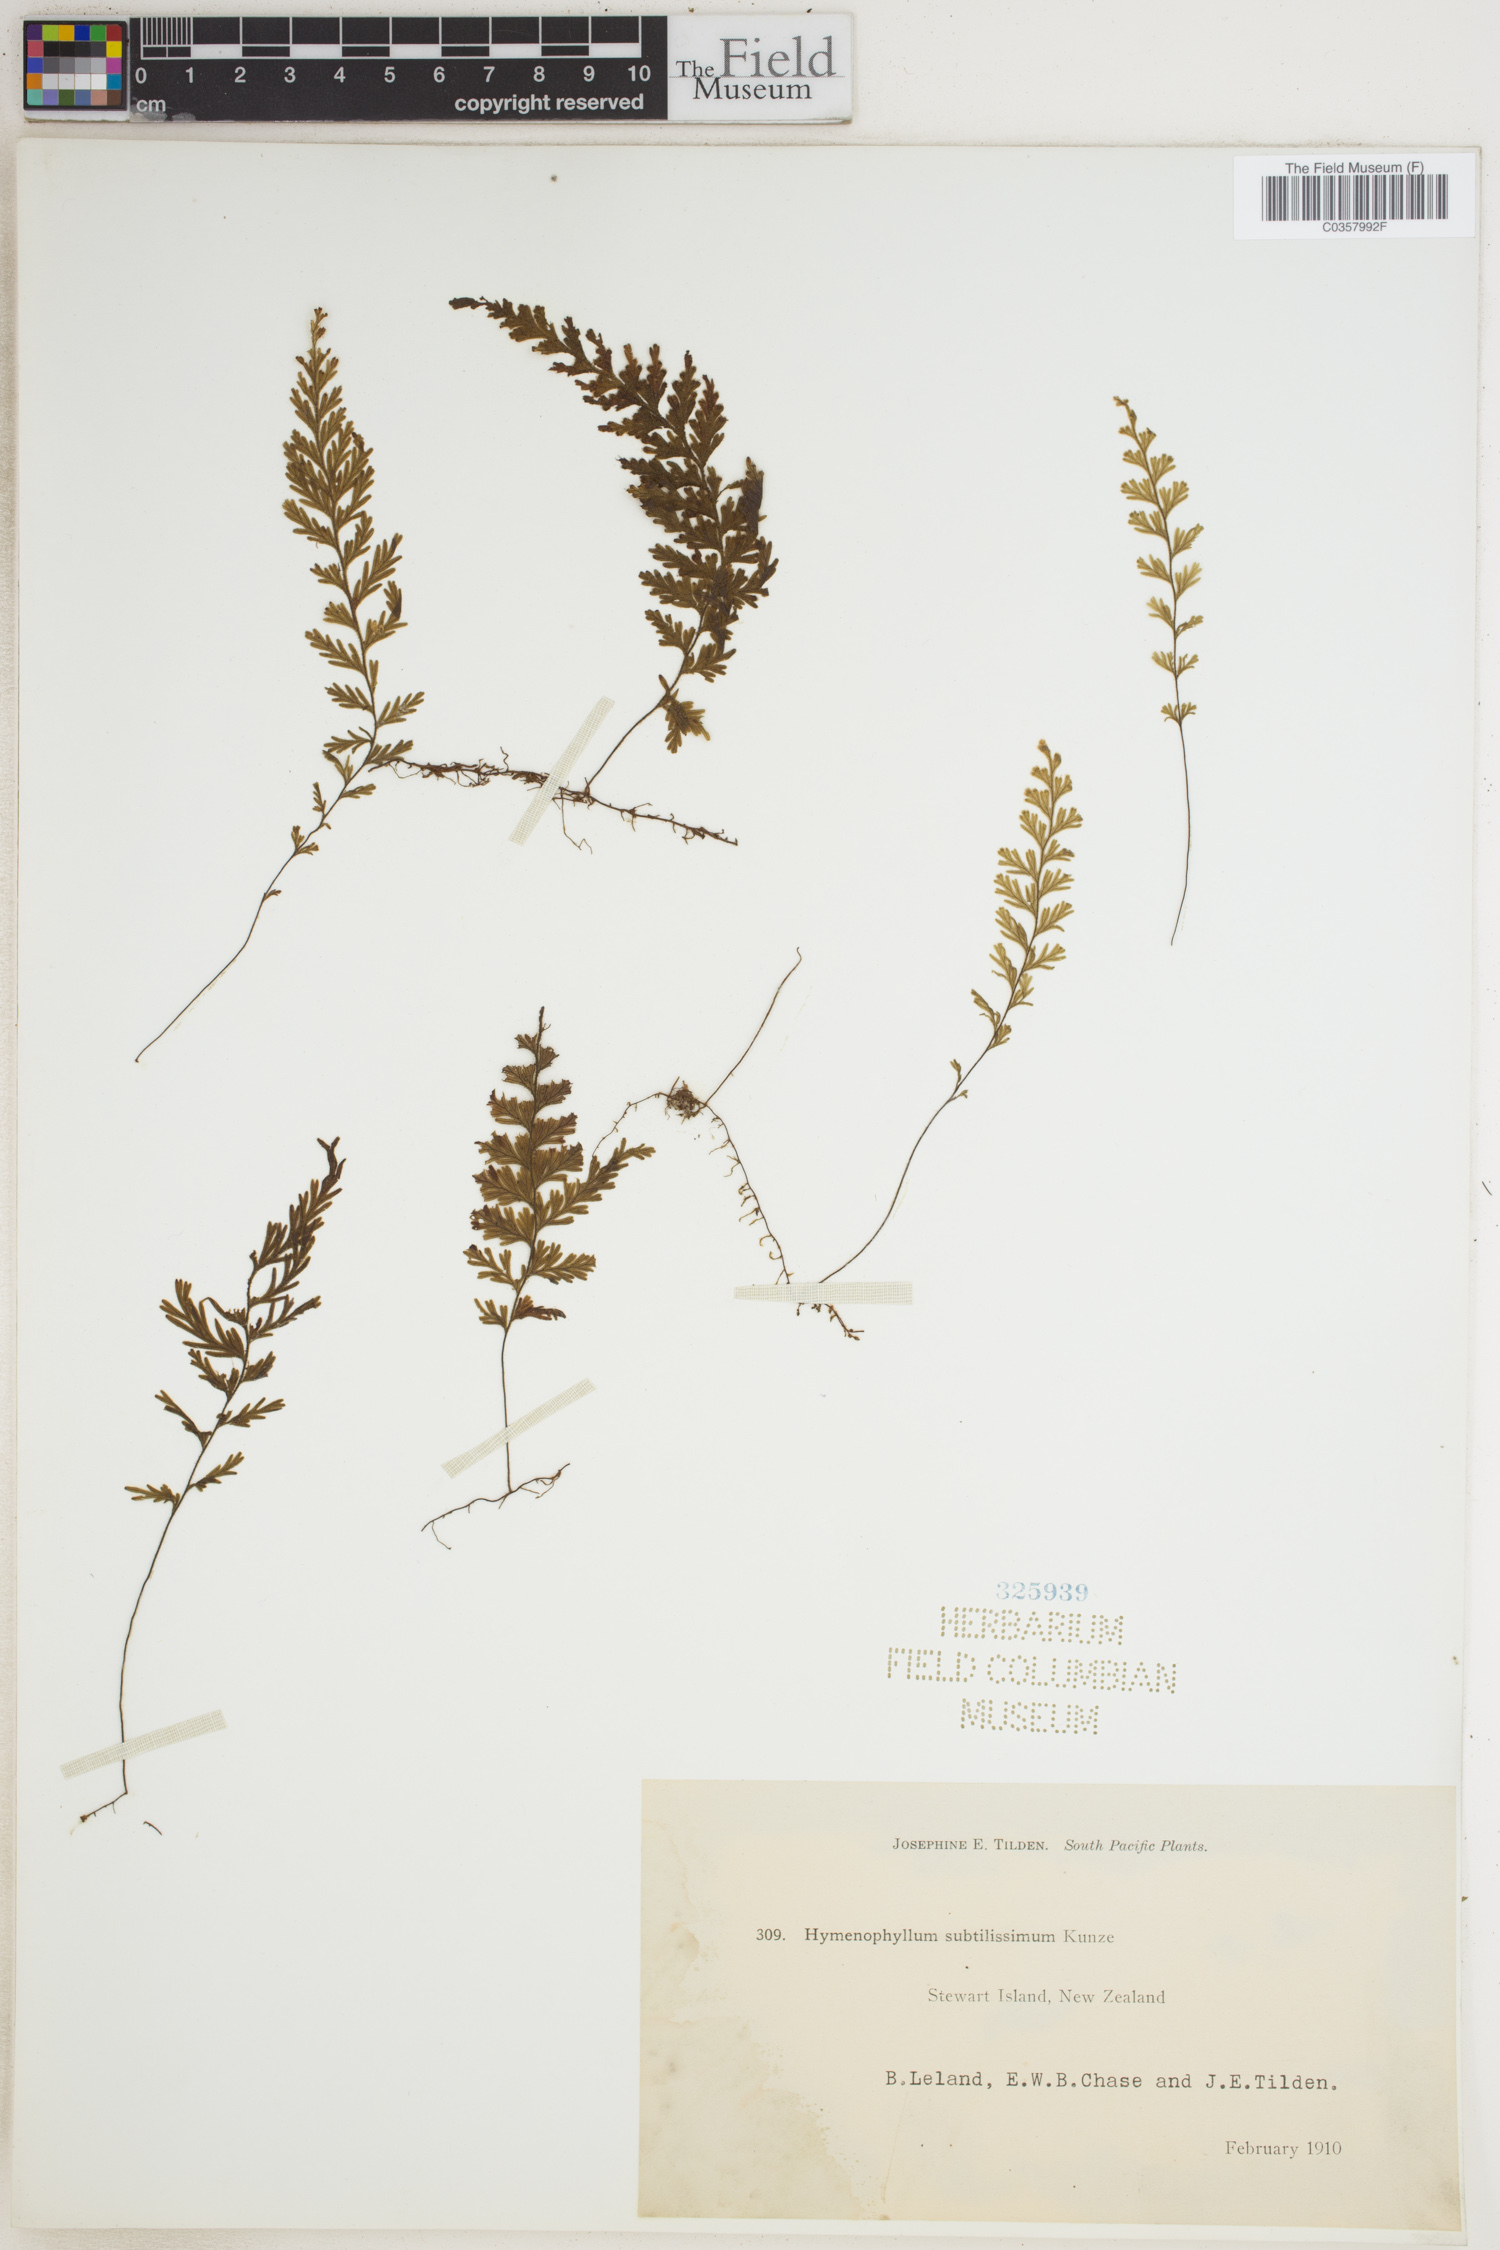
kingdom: Plantae
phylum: Tracheophyta
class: Polypodiopsida
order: Hymenophyllales
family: Hymenophyllaceae
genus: Hymenophyllum
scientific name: Hymenophyllum ferrugineum
